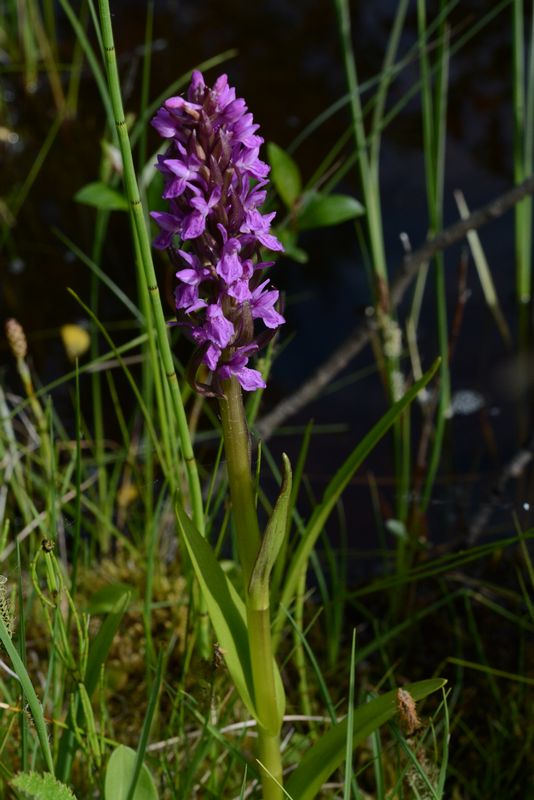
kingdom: Plantae
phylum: Tracheophyta
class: Liliopsida
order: Asparagales
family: Orchidaceae
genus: Dactylorhiza
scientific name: Dactylorhiza incarnata
